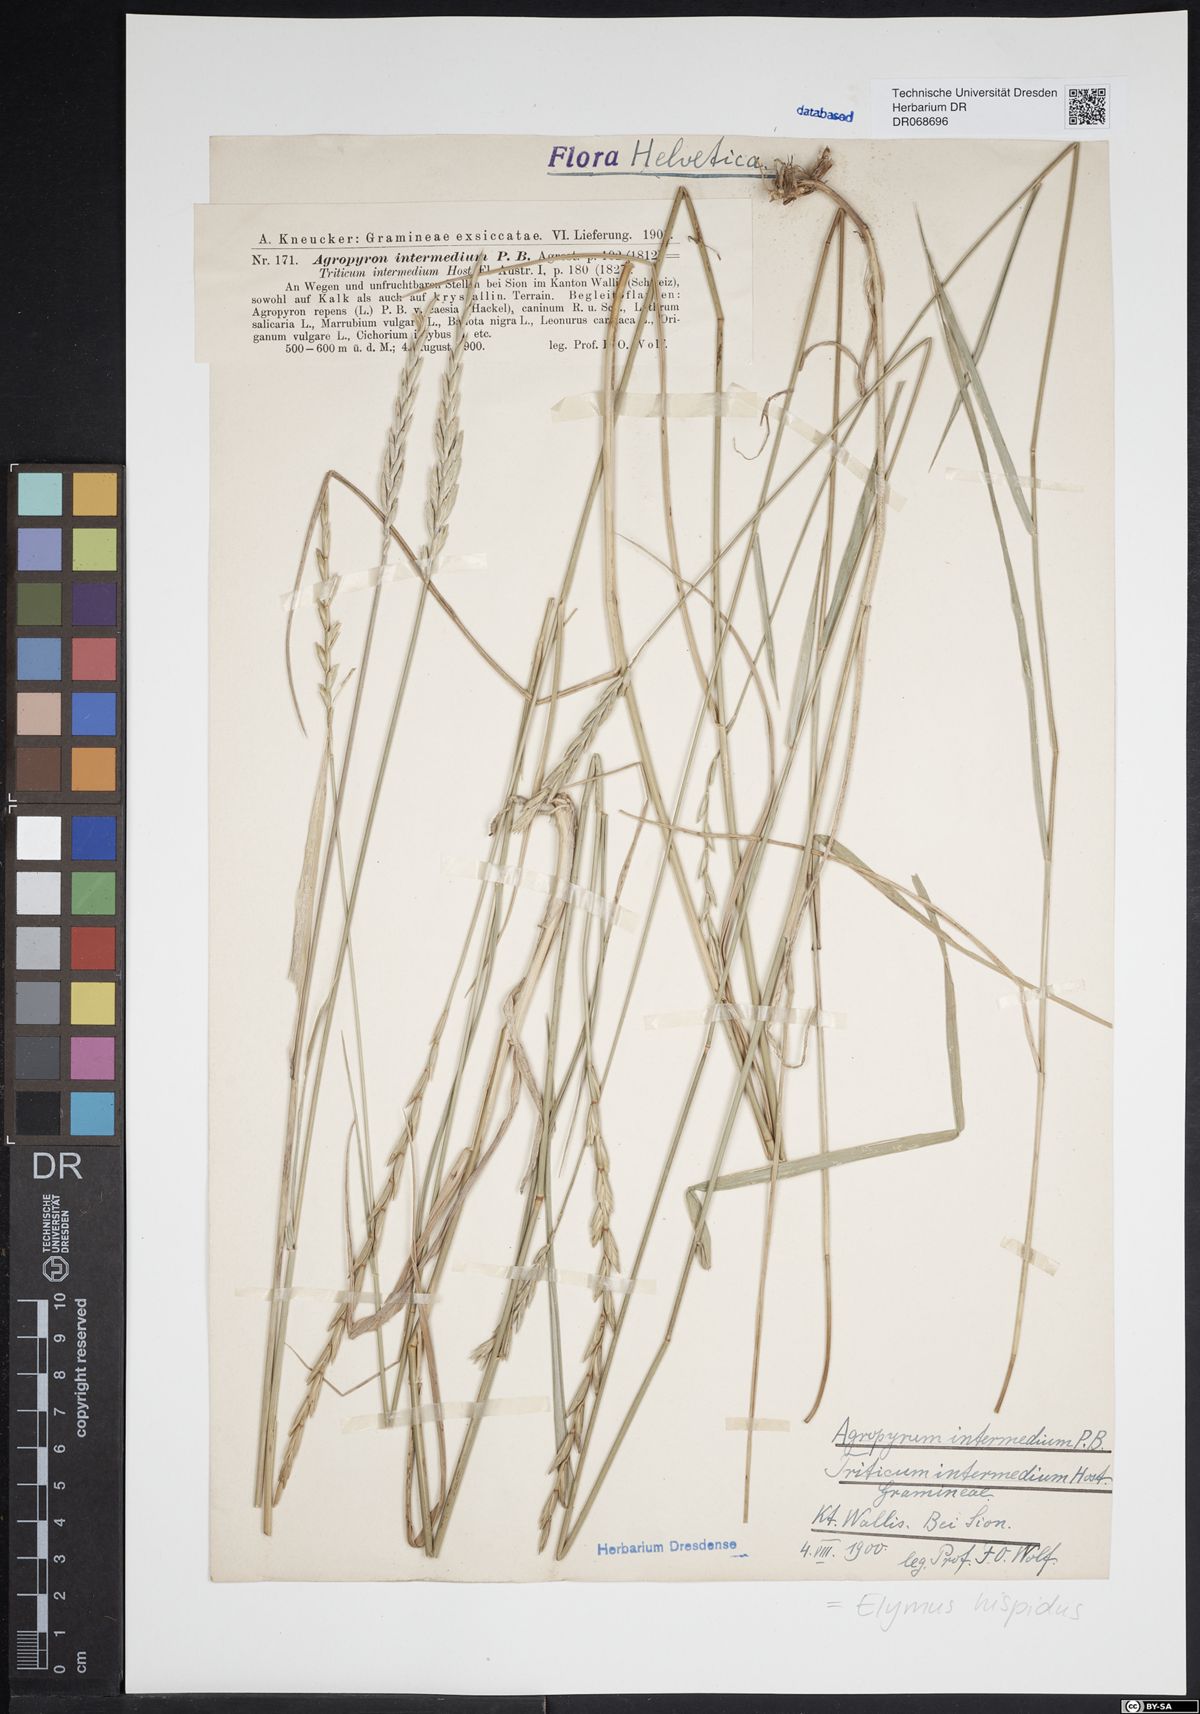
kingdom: Plantae
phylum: Tracheophyta
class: Liliopsida
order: Poales
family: Poaceae
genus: Thinopyrum
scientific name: Thinopyrum intermedium
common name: Intermediate wheatgrass
